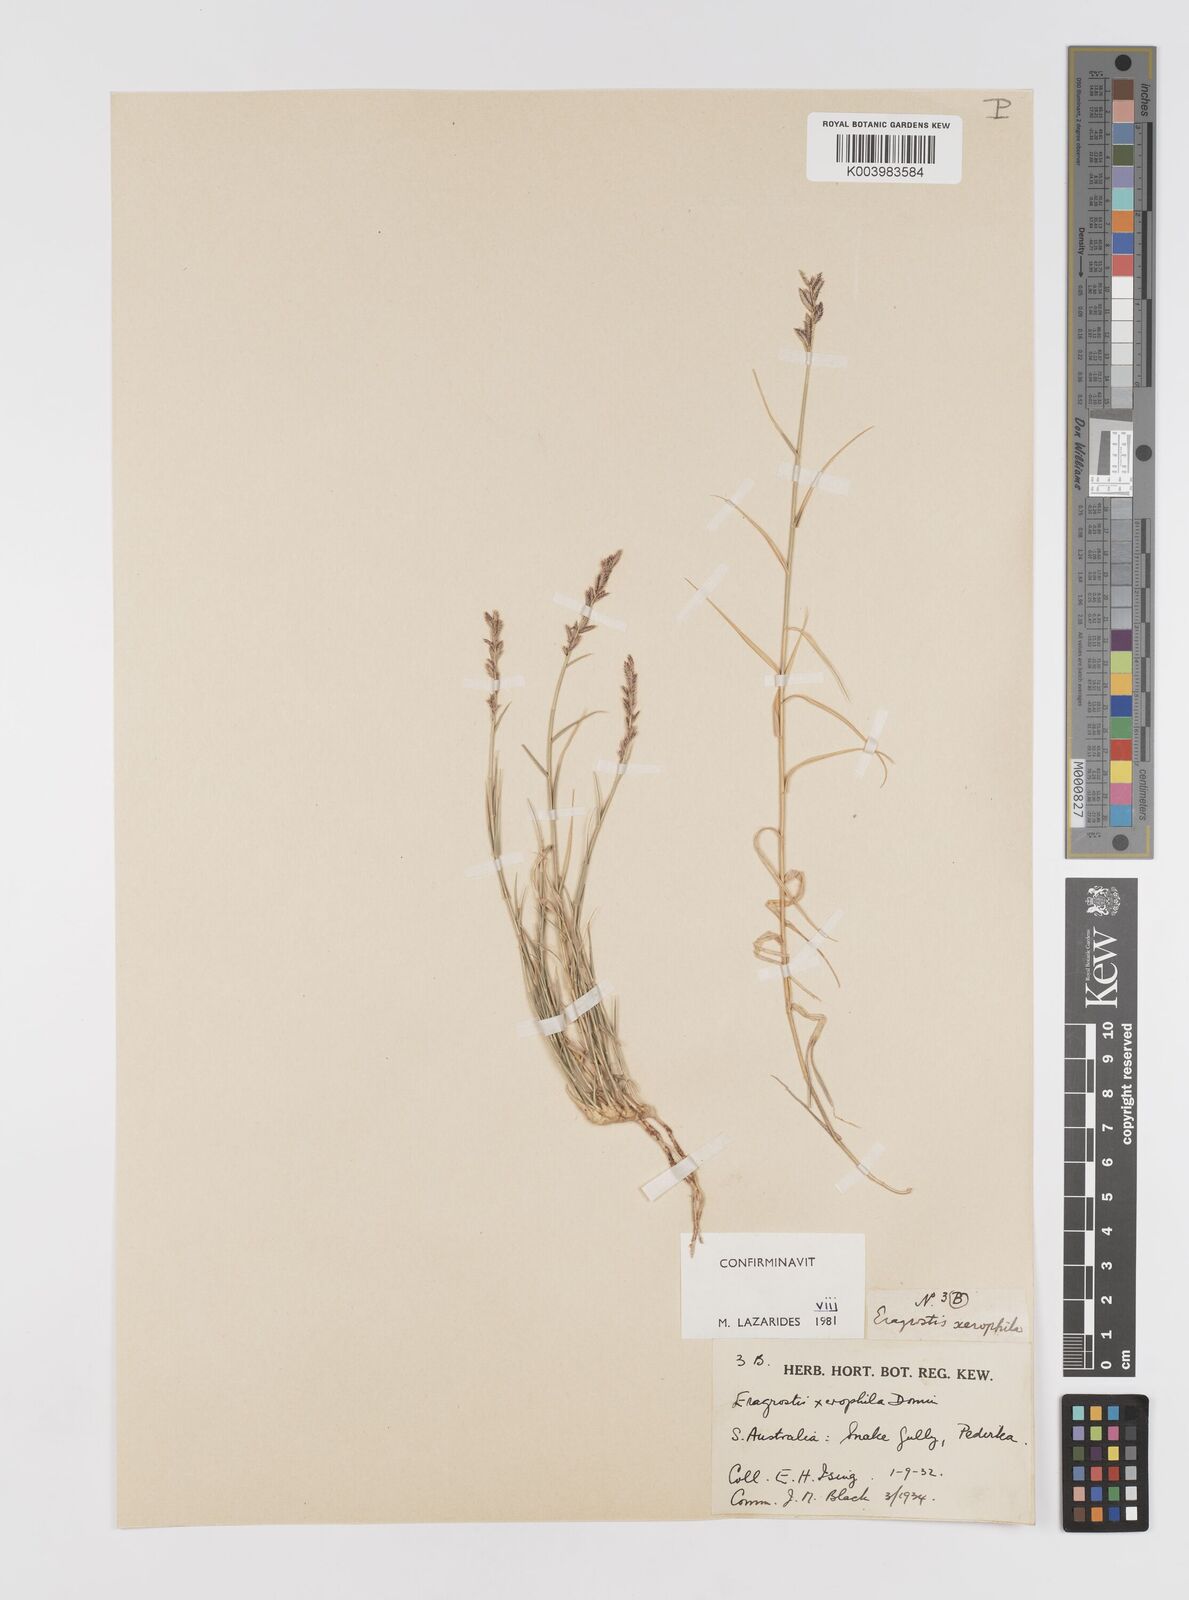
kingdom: Plantae
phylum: Tracheophyta
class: Liliopsida
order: Poales
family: Poaceae
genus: Eragrostis
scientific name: Eragrostis xerophila
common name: Wire wandarrie grass
